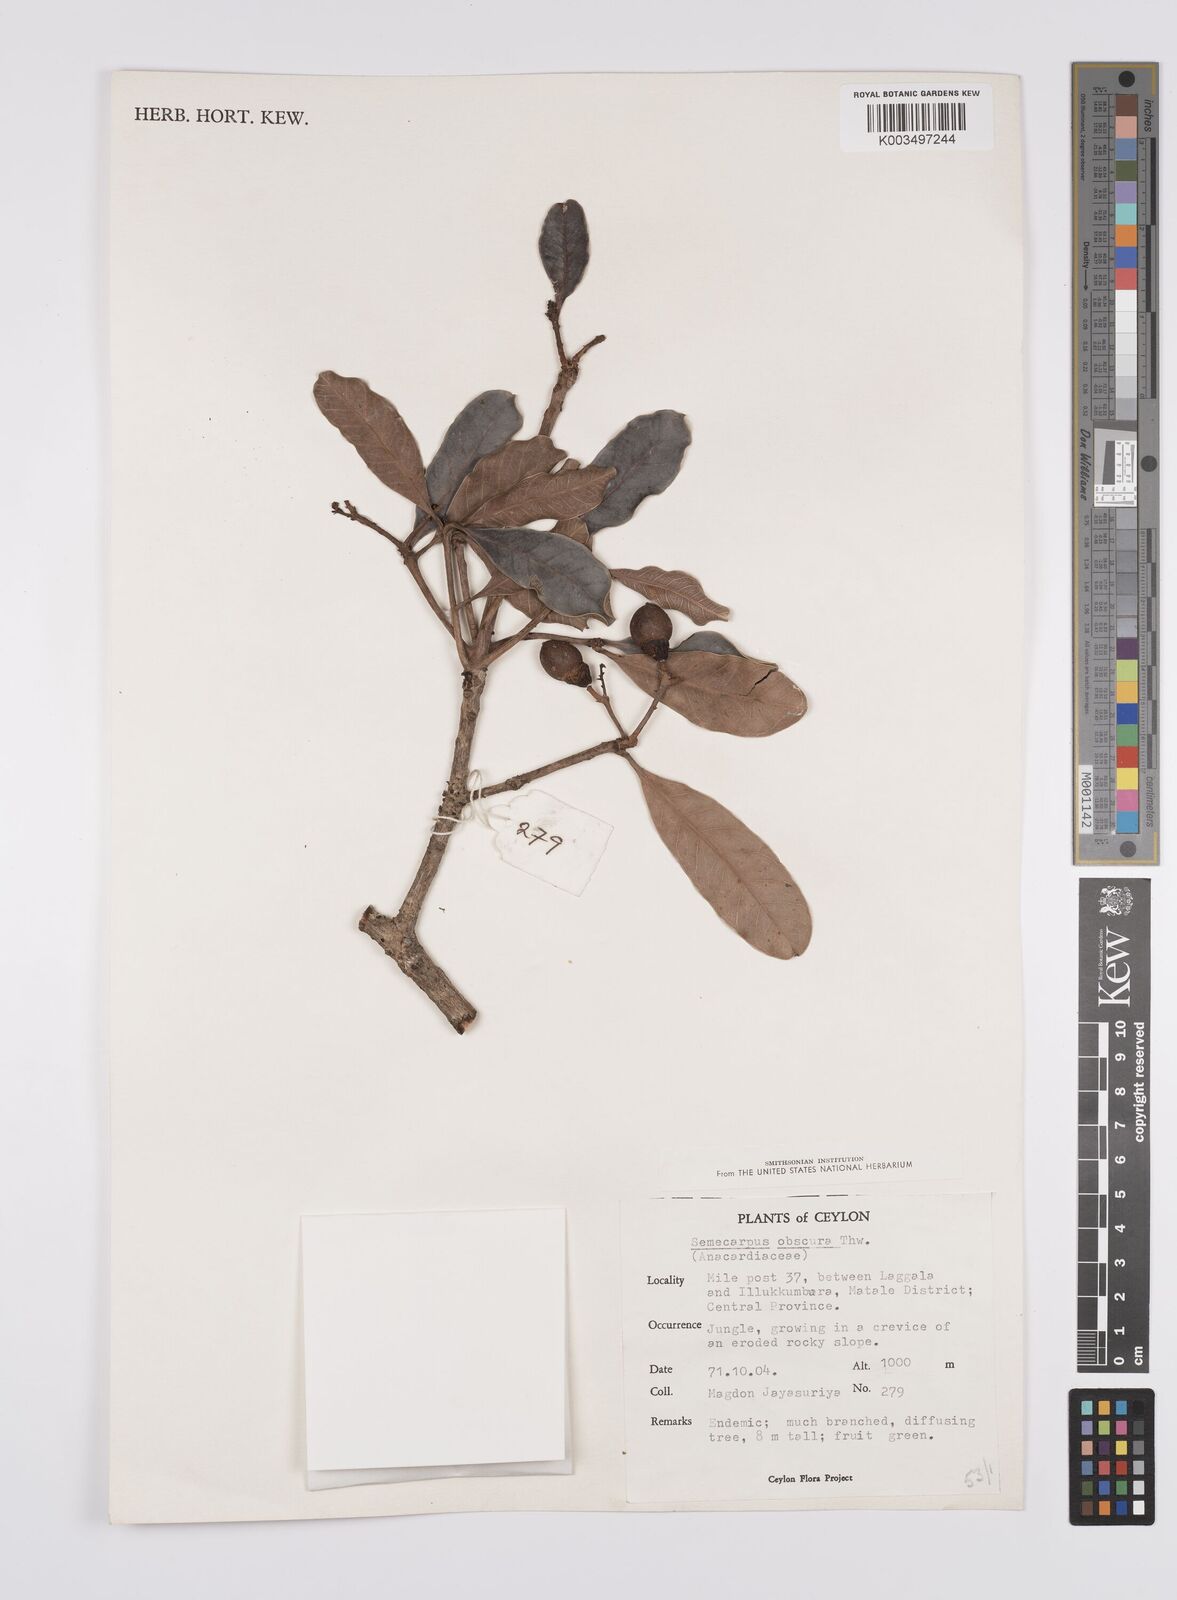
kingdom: Plantae
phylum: Tracheophyta
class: Magnoliopsida
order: Sapindales
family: Anacardiaceae
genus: Semecarpus
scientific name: Semecarpus walkeri
